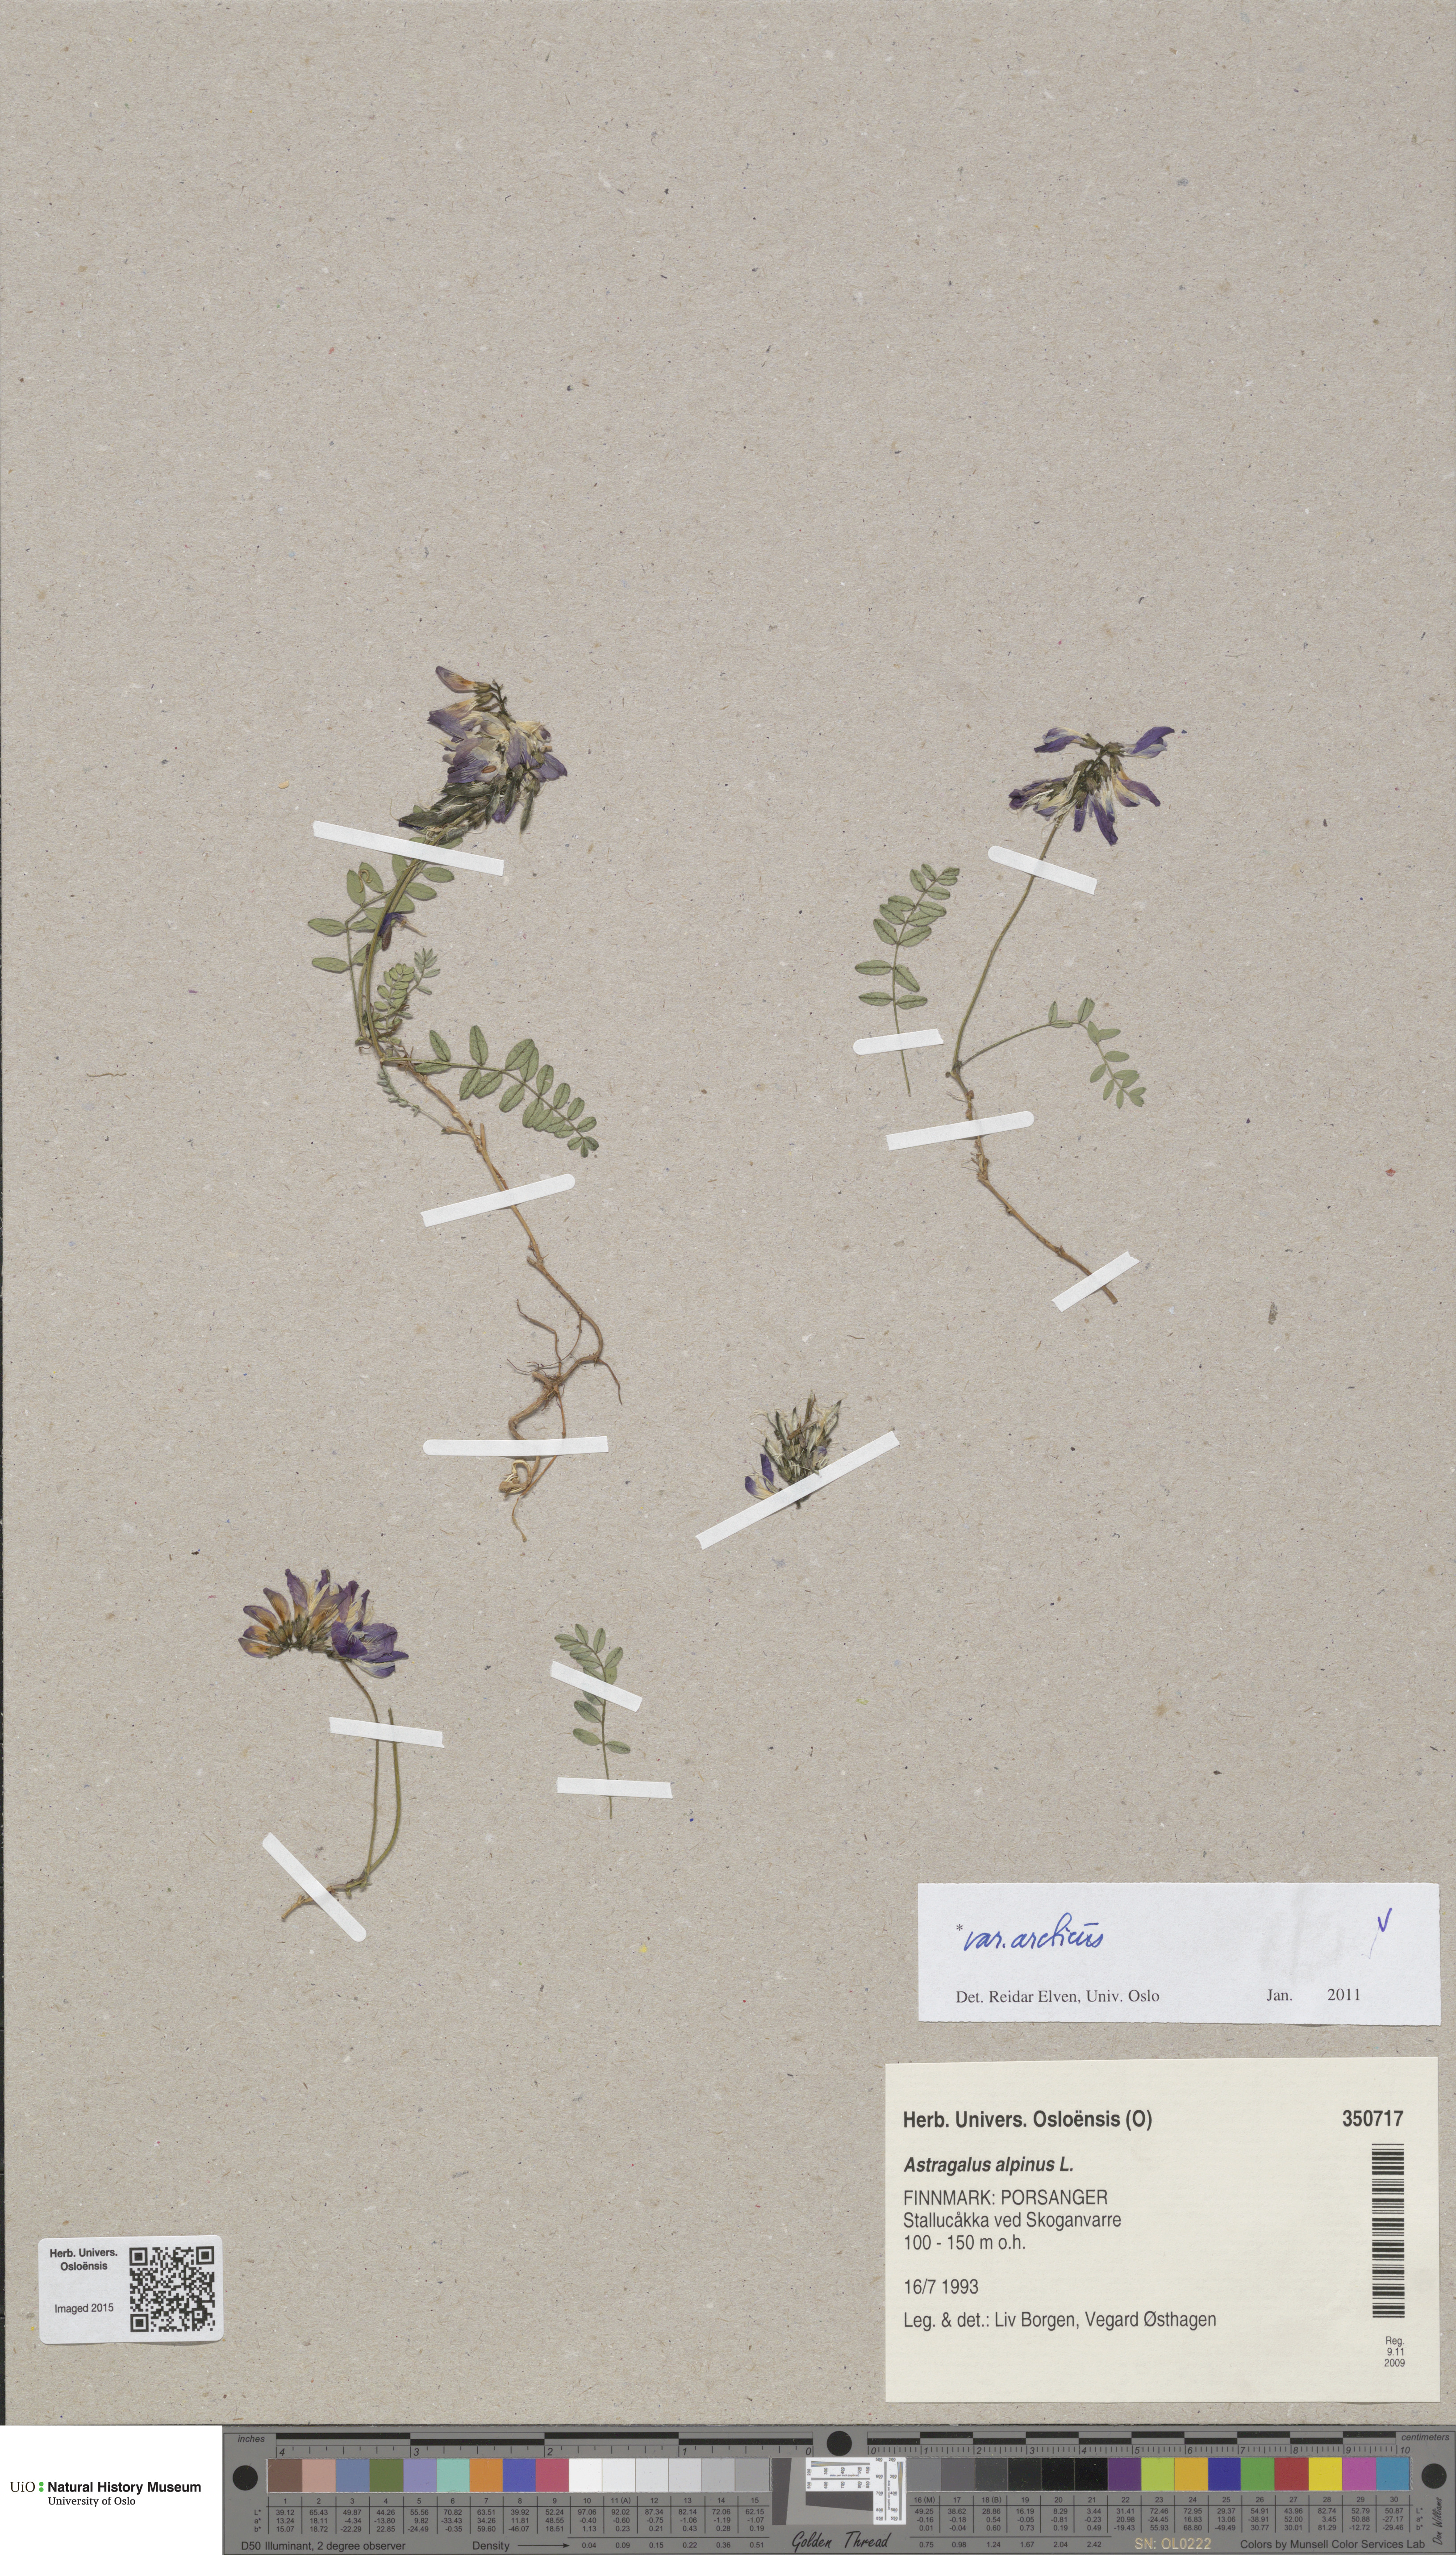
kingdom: Plantae
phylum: Tracheophyta
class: Magnoliopsida
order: Fabales
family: Fabaceae
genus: Astragalus
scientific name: Astragalus norvegicus
